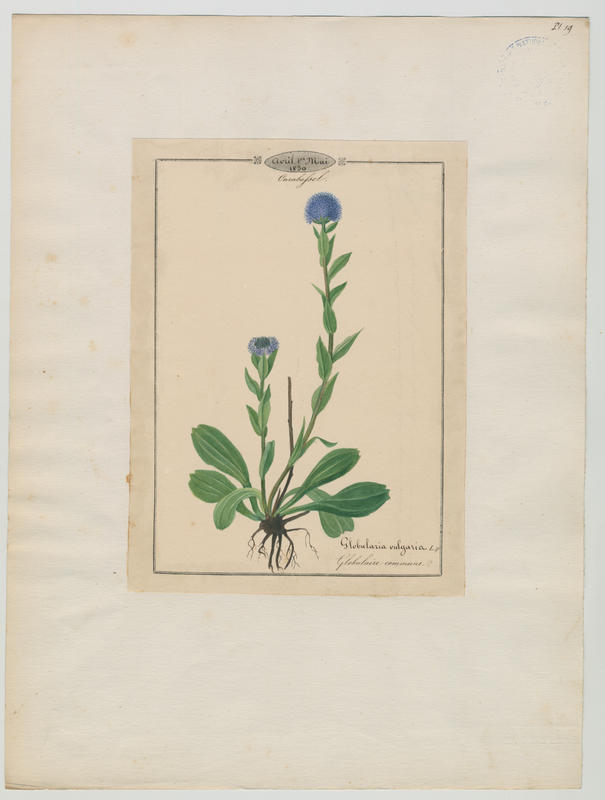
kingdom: Plantae
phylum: Tracheophyta
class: Magnoliopsida
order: Lamiales
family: Plantaginaceae
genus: Globularia
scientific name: Globularia bisnagarica
